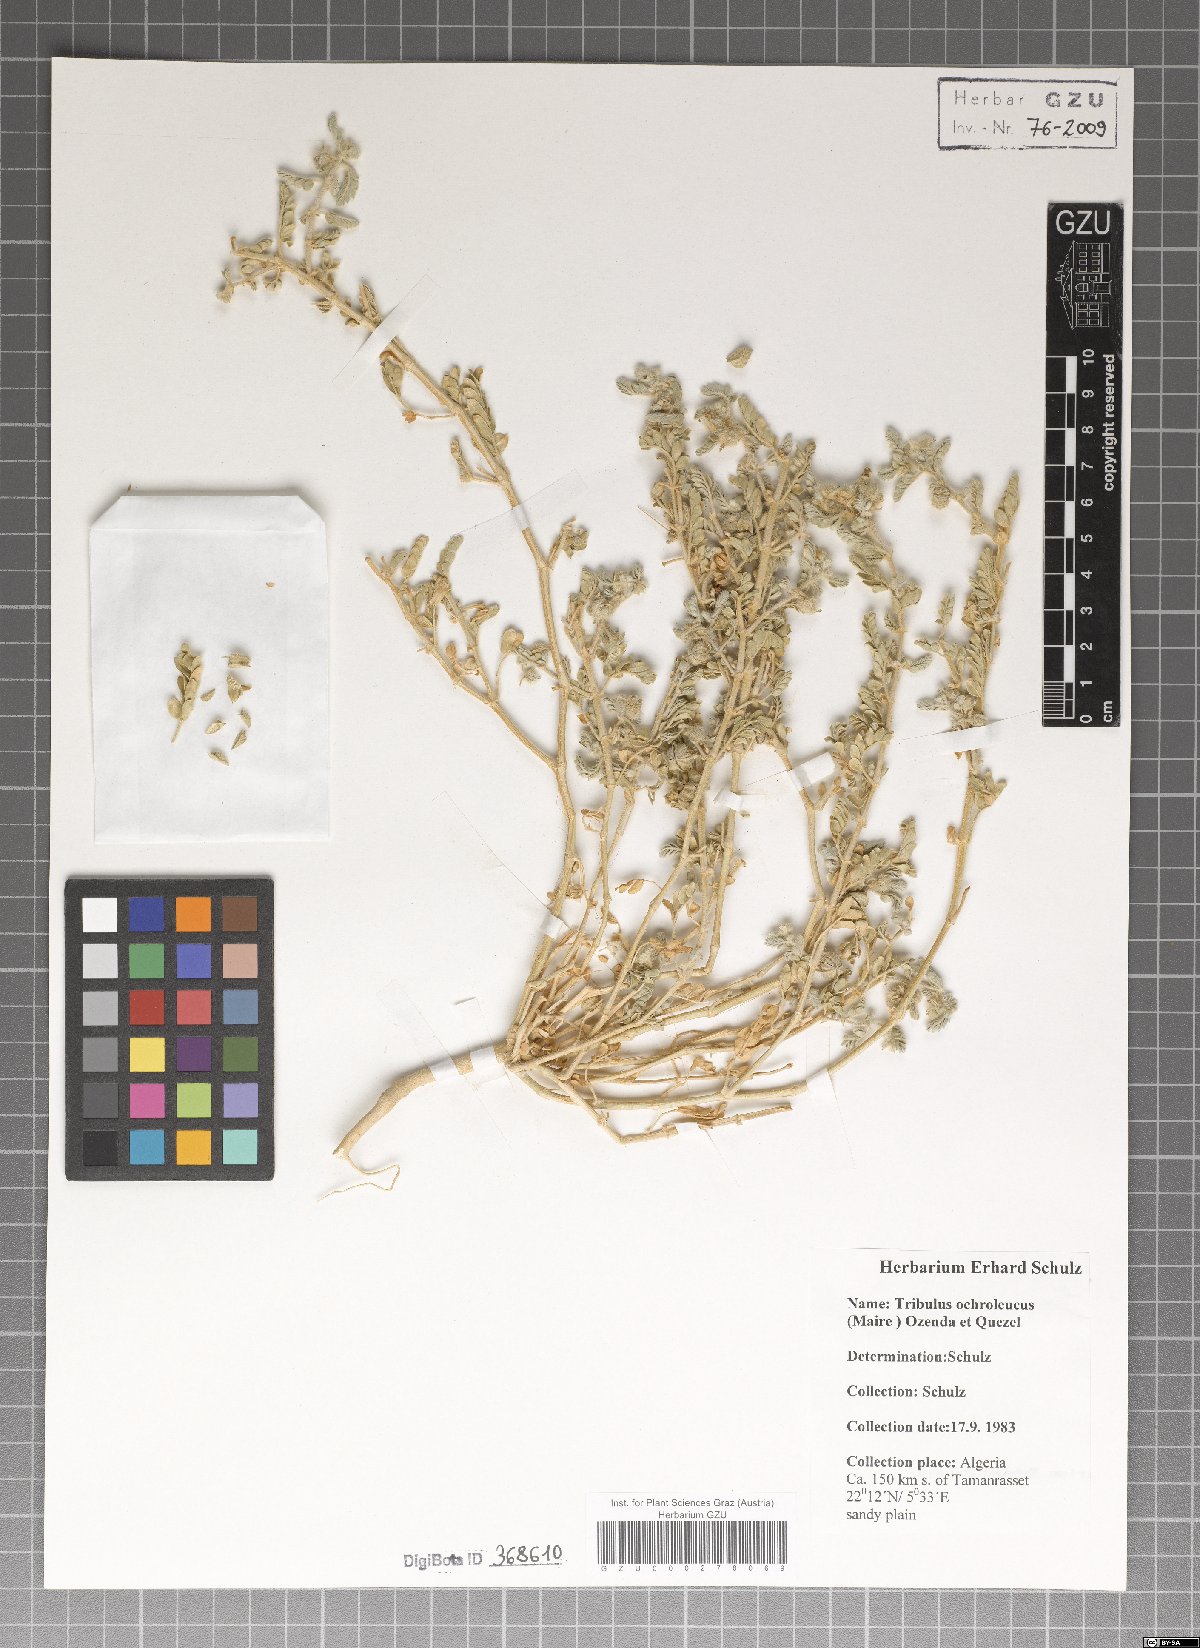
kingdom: Plantae
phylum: Tracheophyta
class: Magnoliopsida
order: Zygophyllales
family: Zygophyllaceae
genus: Tribulus
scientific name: Tribulus ochroleucus
